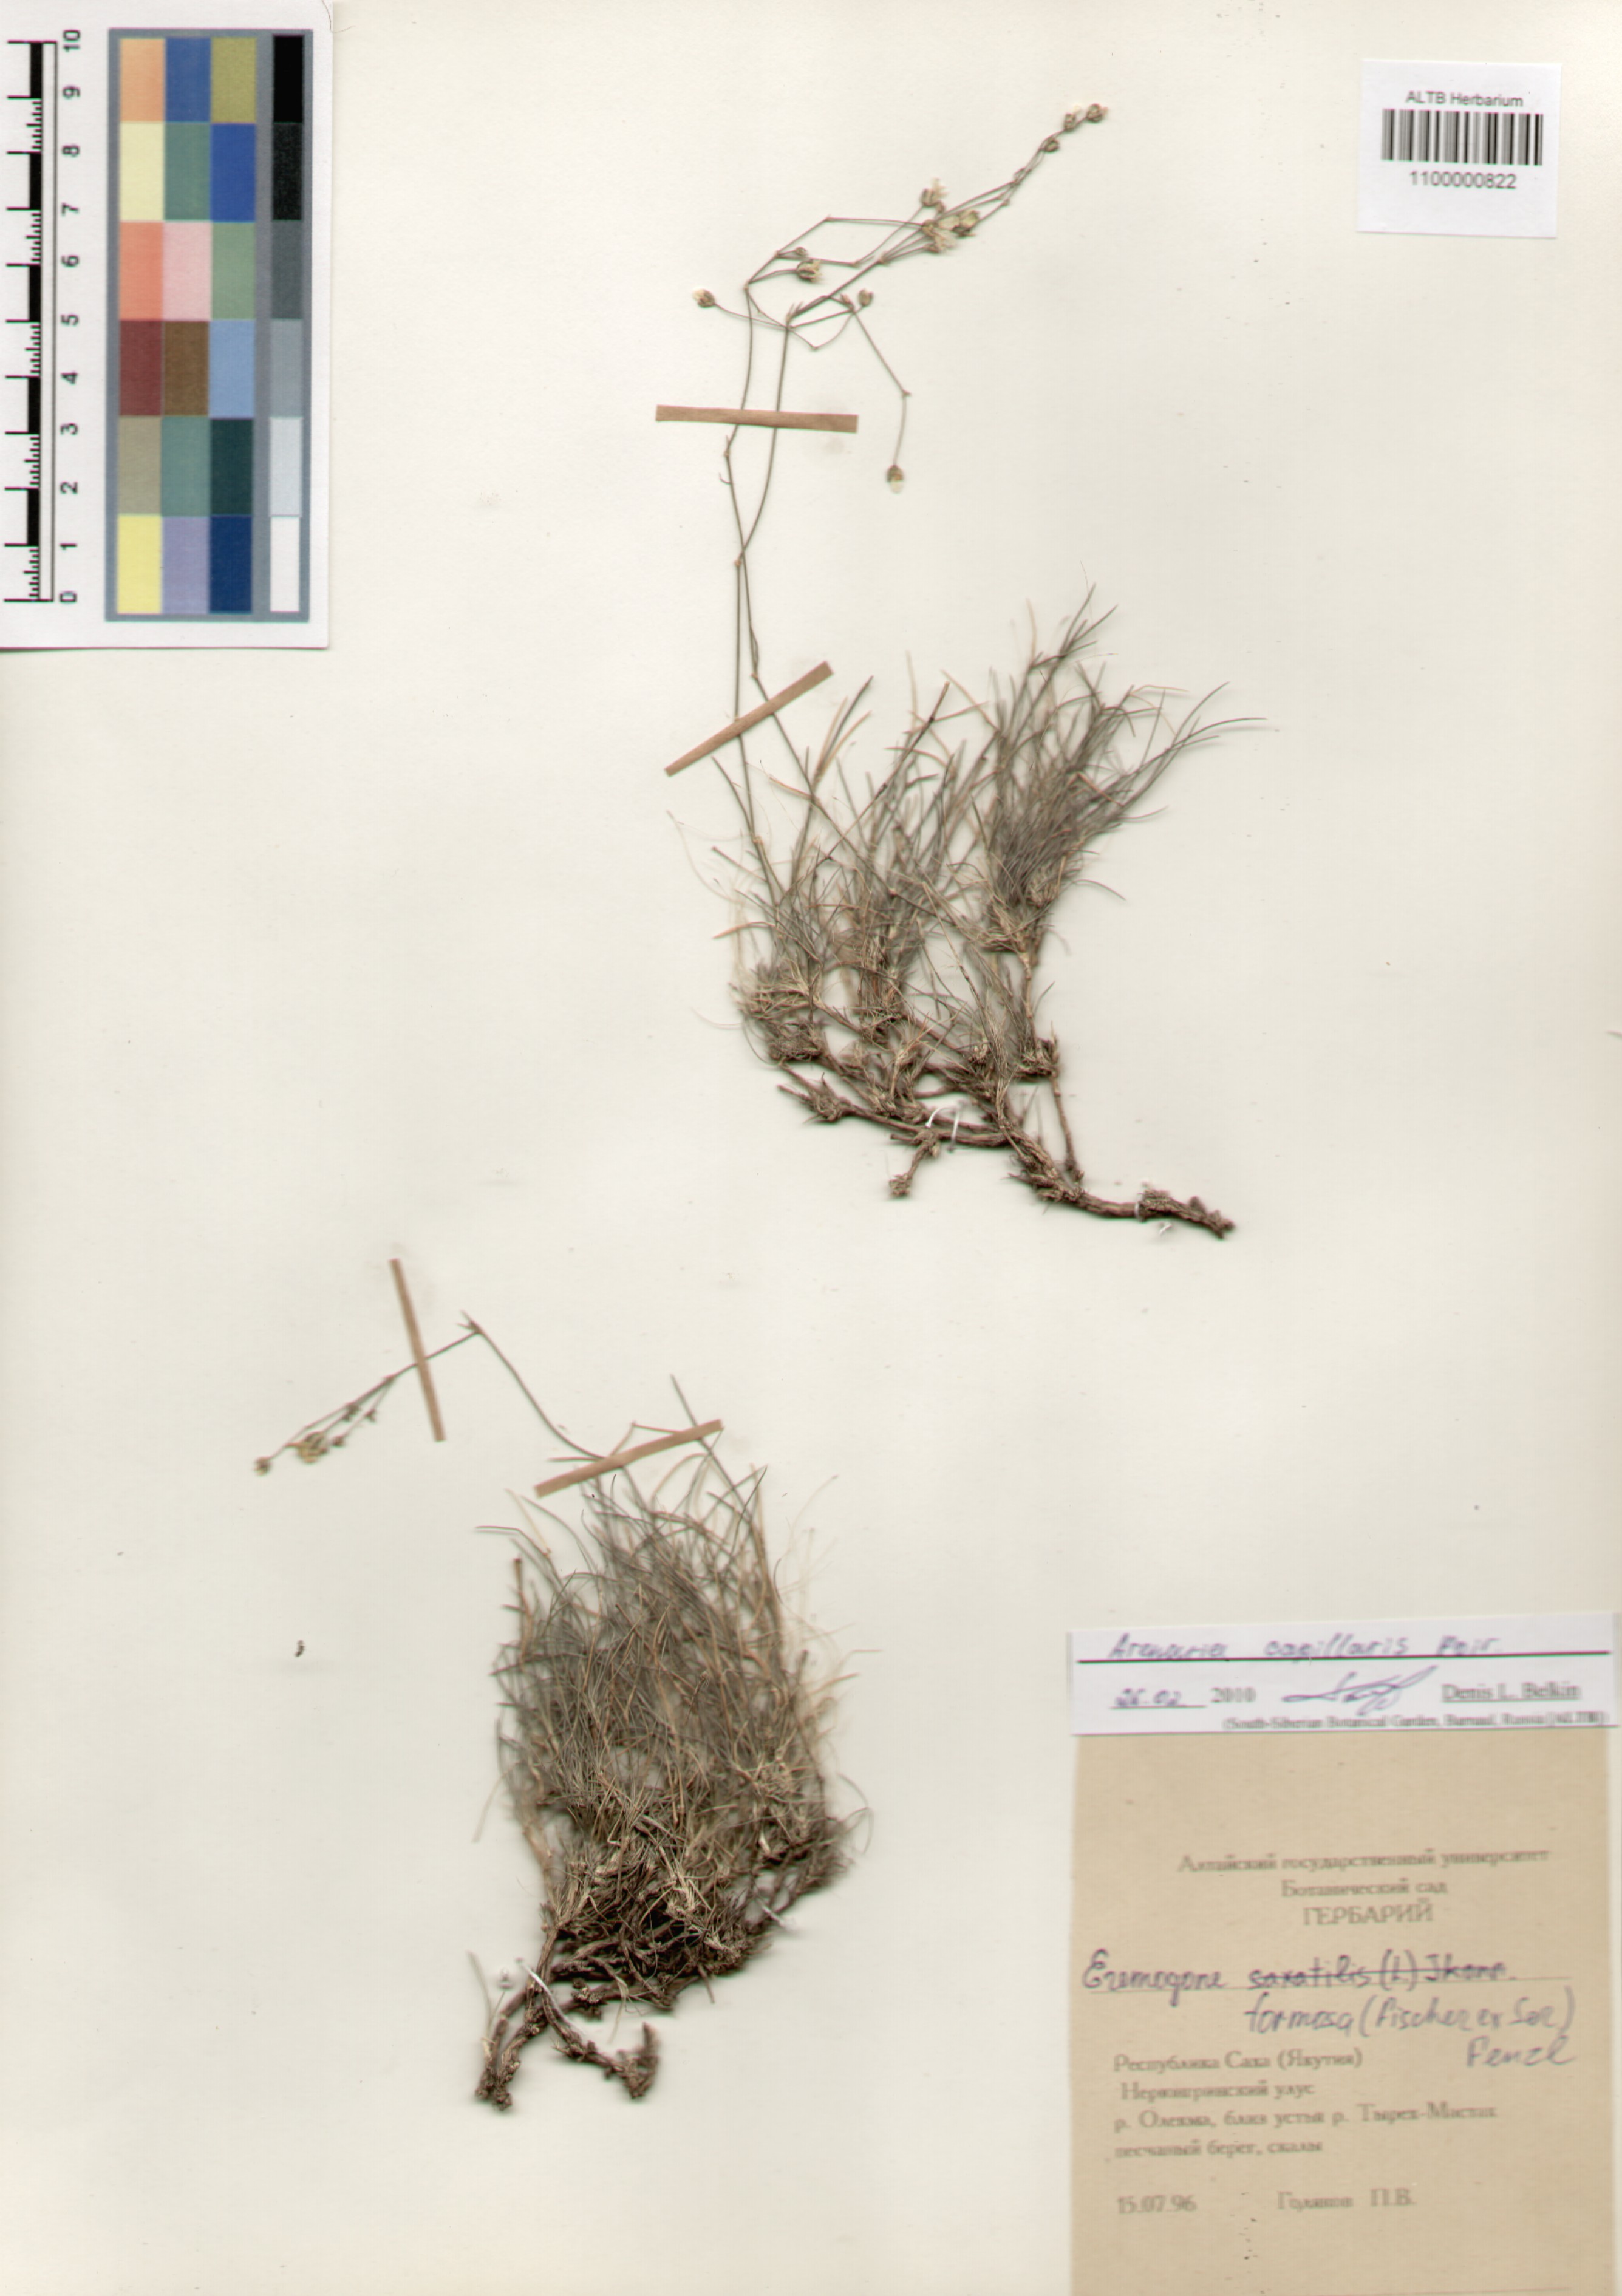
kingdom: Plantae
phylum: Tracheophyta
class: Magnoliopsida
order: Caryophyllales
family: Caryophyllaceae
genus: Eremogone
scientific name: Eremogone capillaris
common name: Slender mountain sandwort
